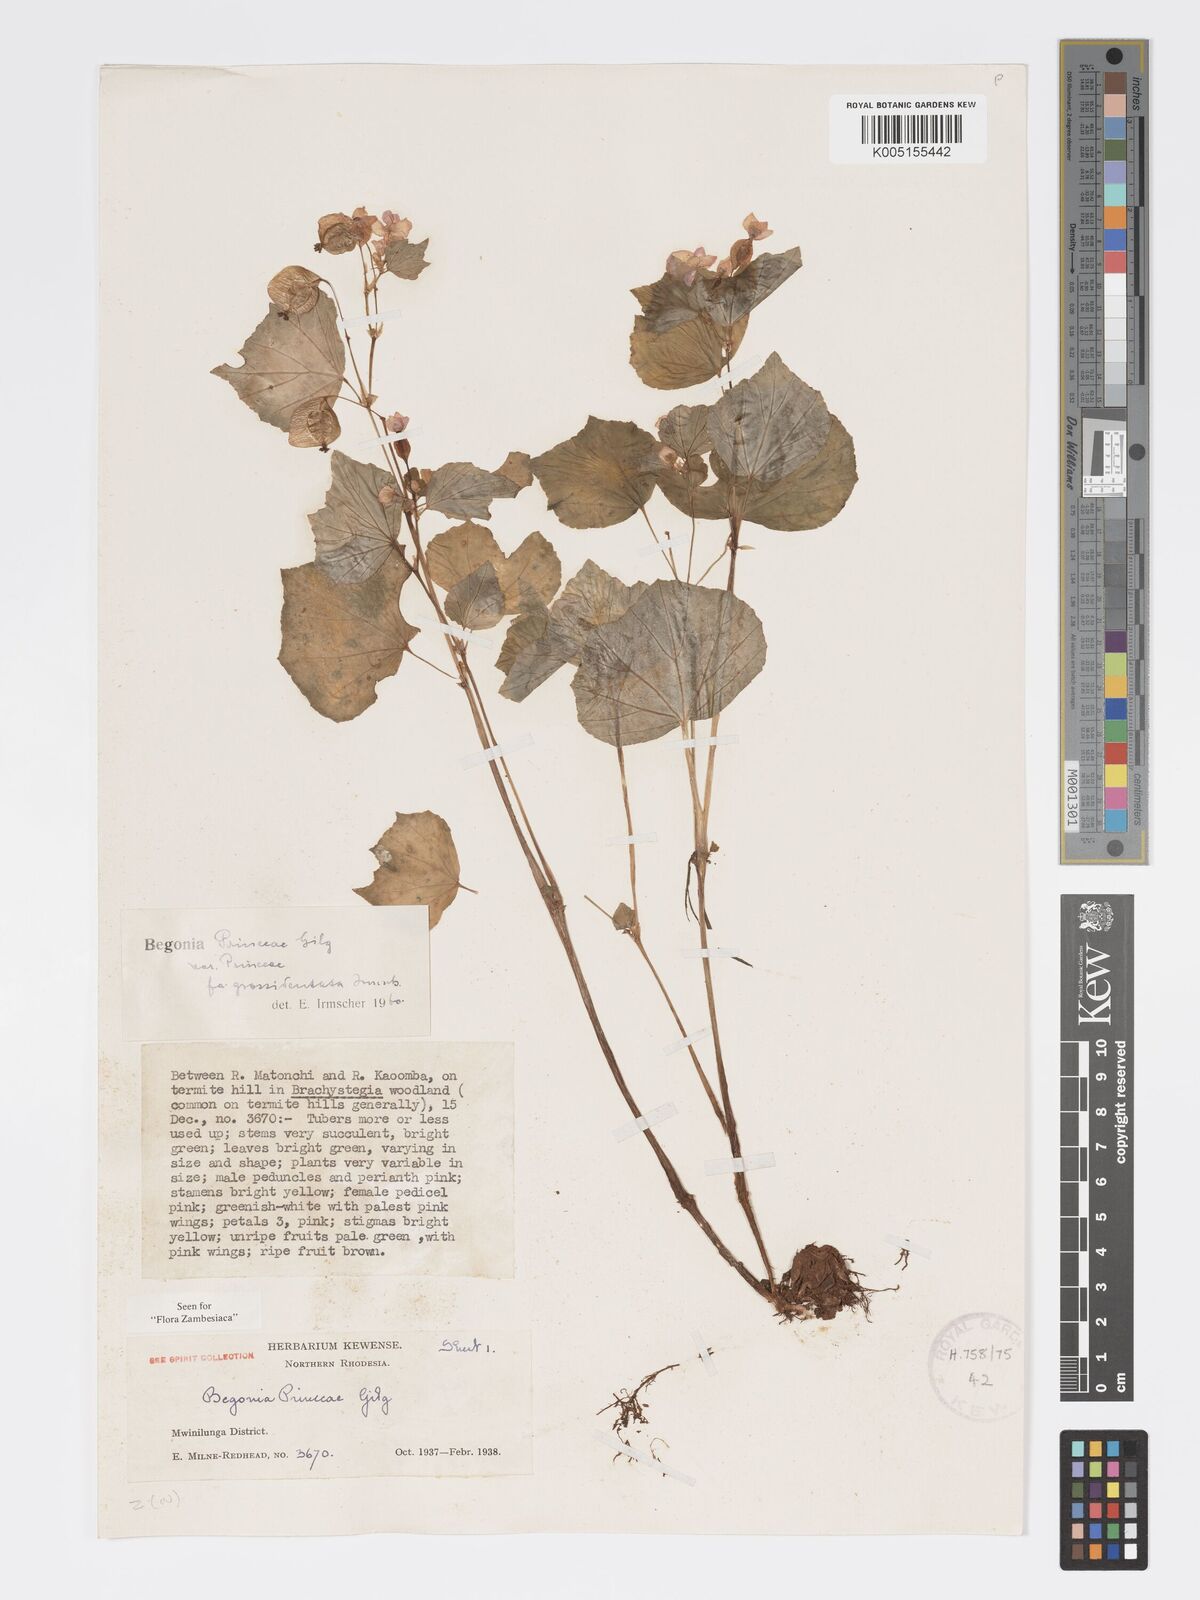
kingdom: Plantae
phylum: Tracheophyta
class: Magnoliopsida
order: Cucurbitales
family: Begoniaceae
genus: Begonia
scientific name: Begonia princeae
